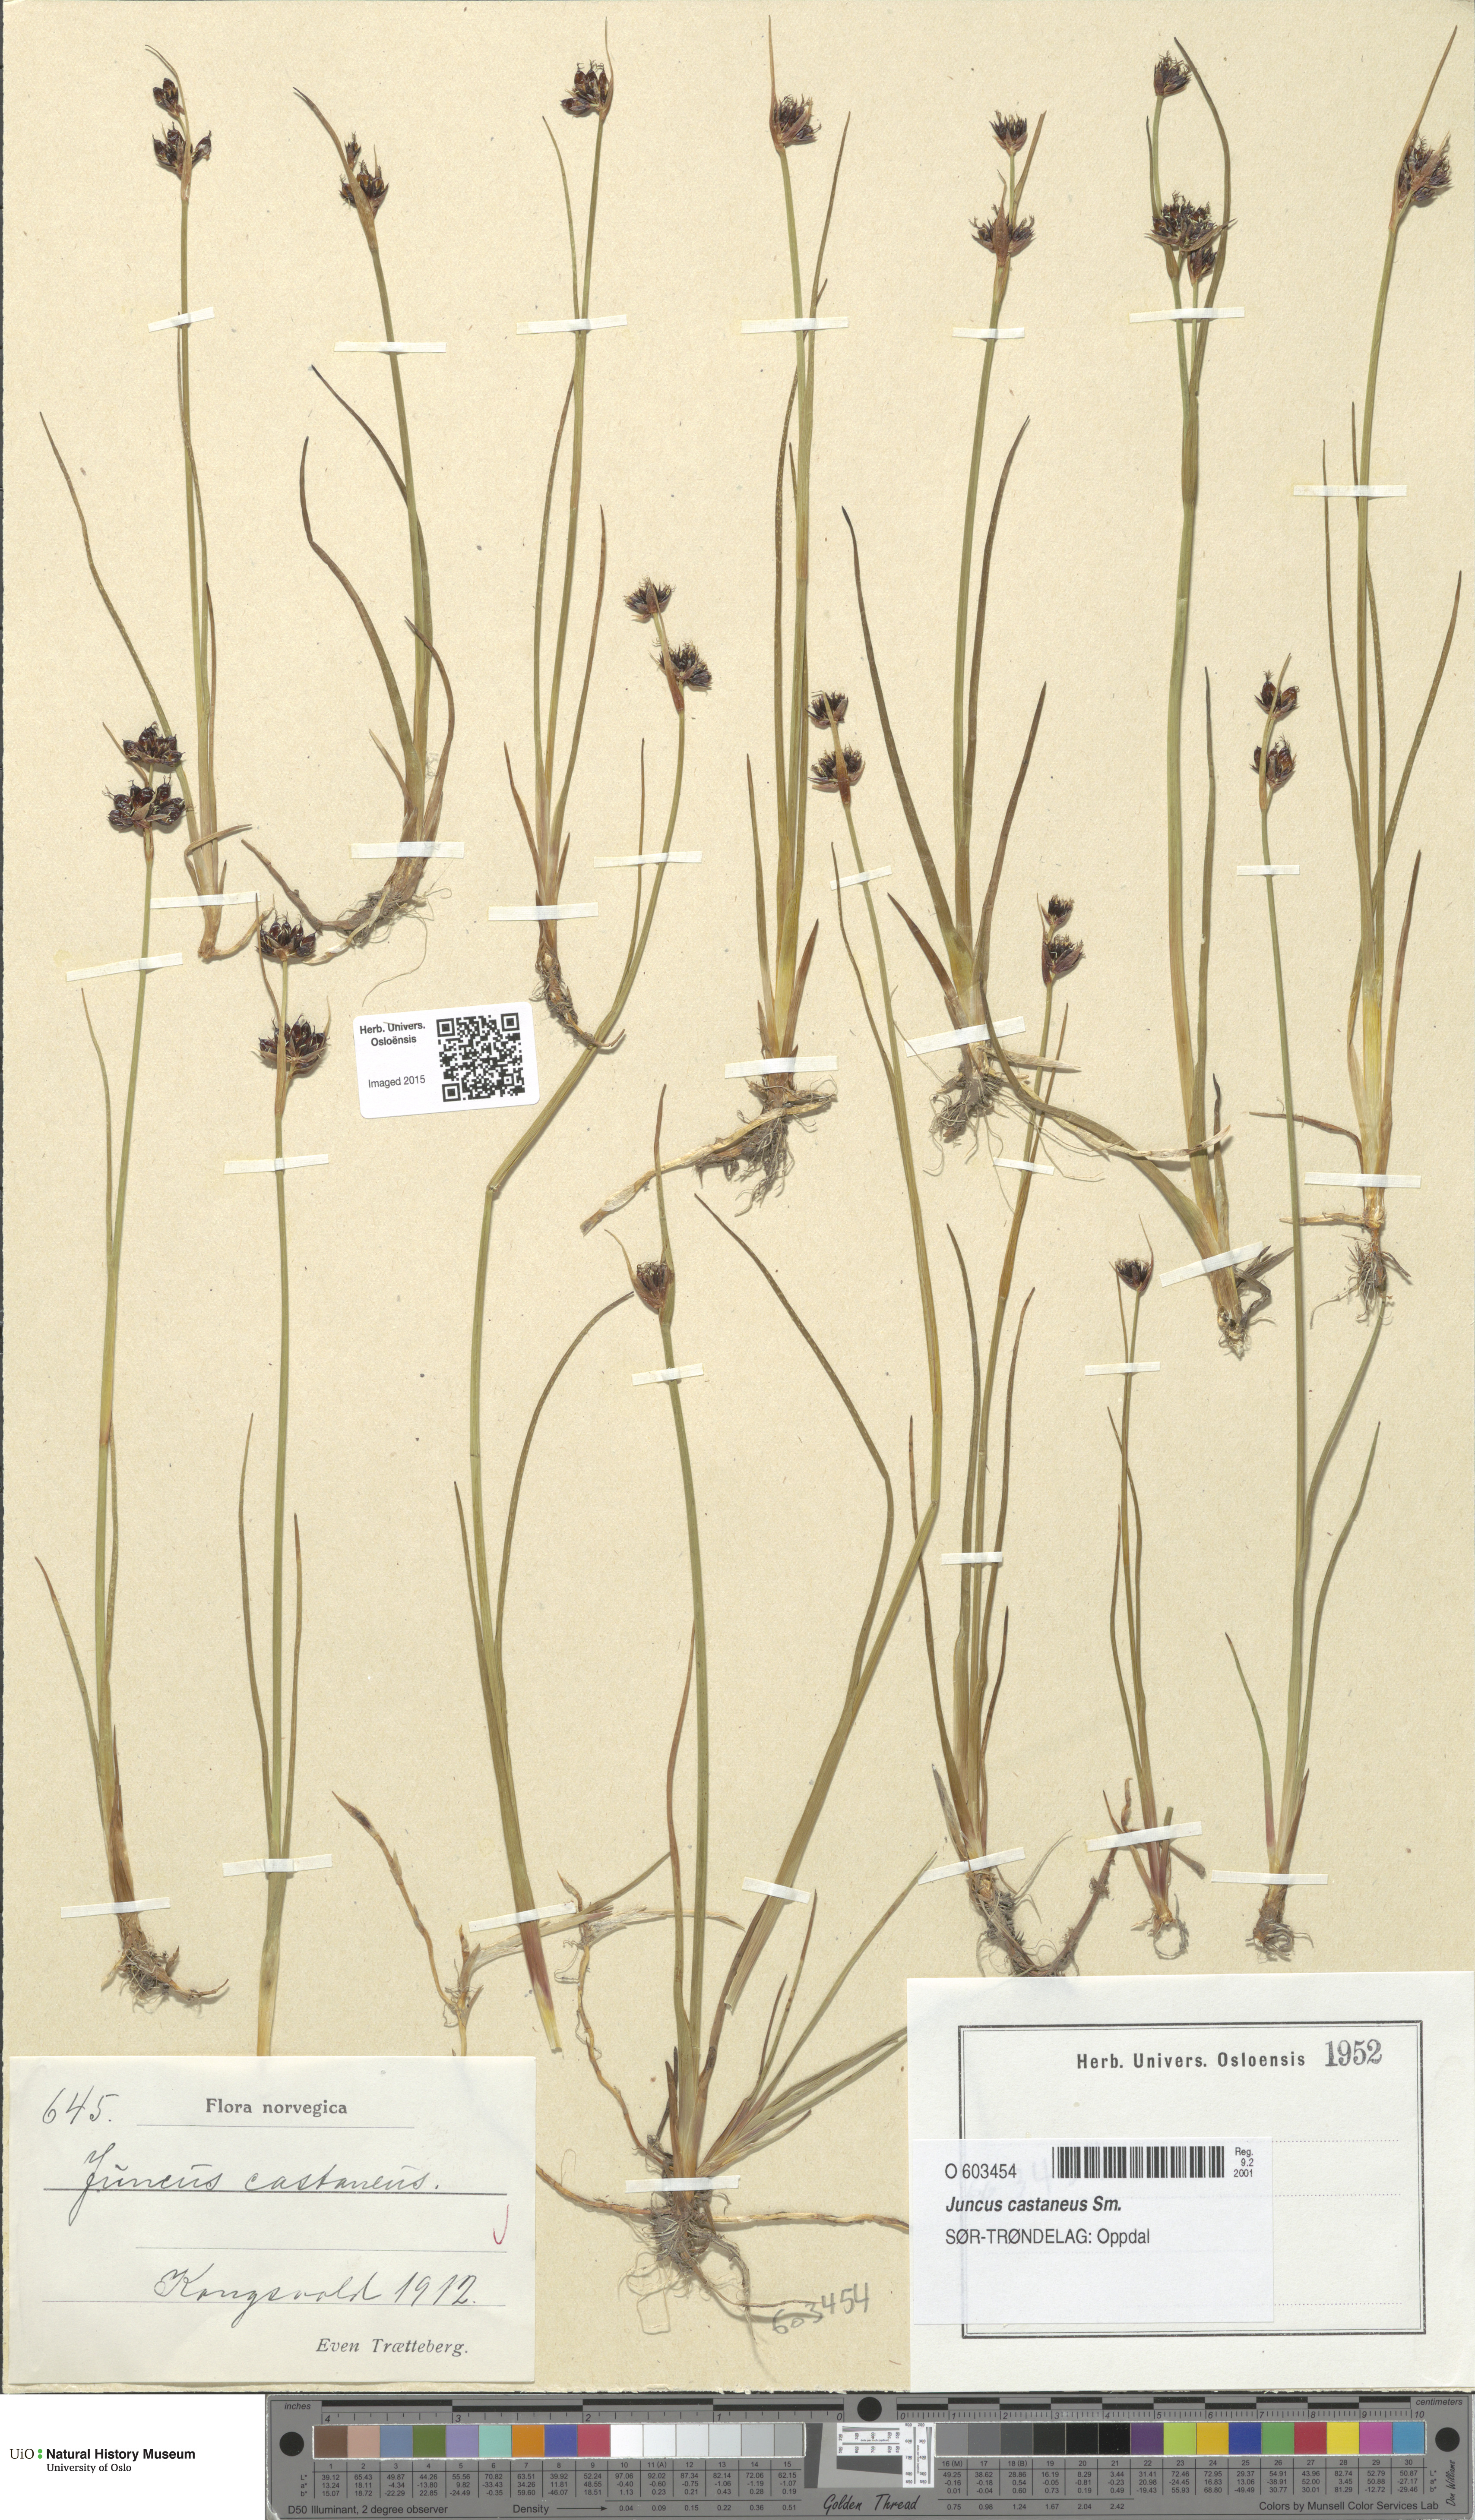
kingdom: Plantae
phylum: Tracheophyta
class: Liliopsida
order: Poales
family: Juncaceae
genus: Juncus
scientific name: Juncus castaneus
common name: Chestnut rush
